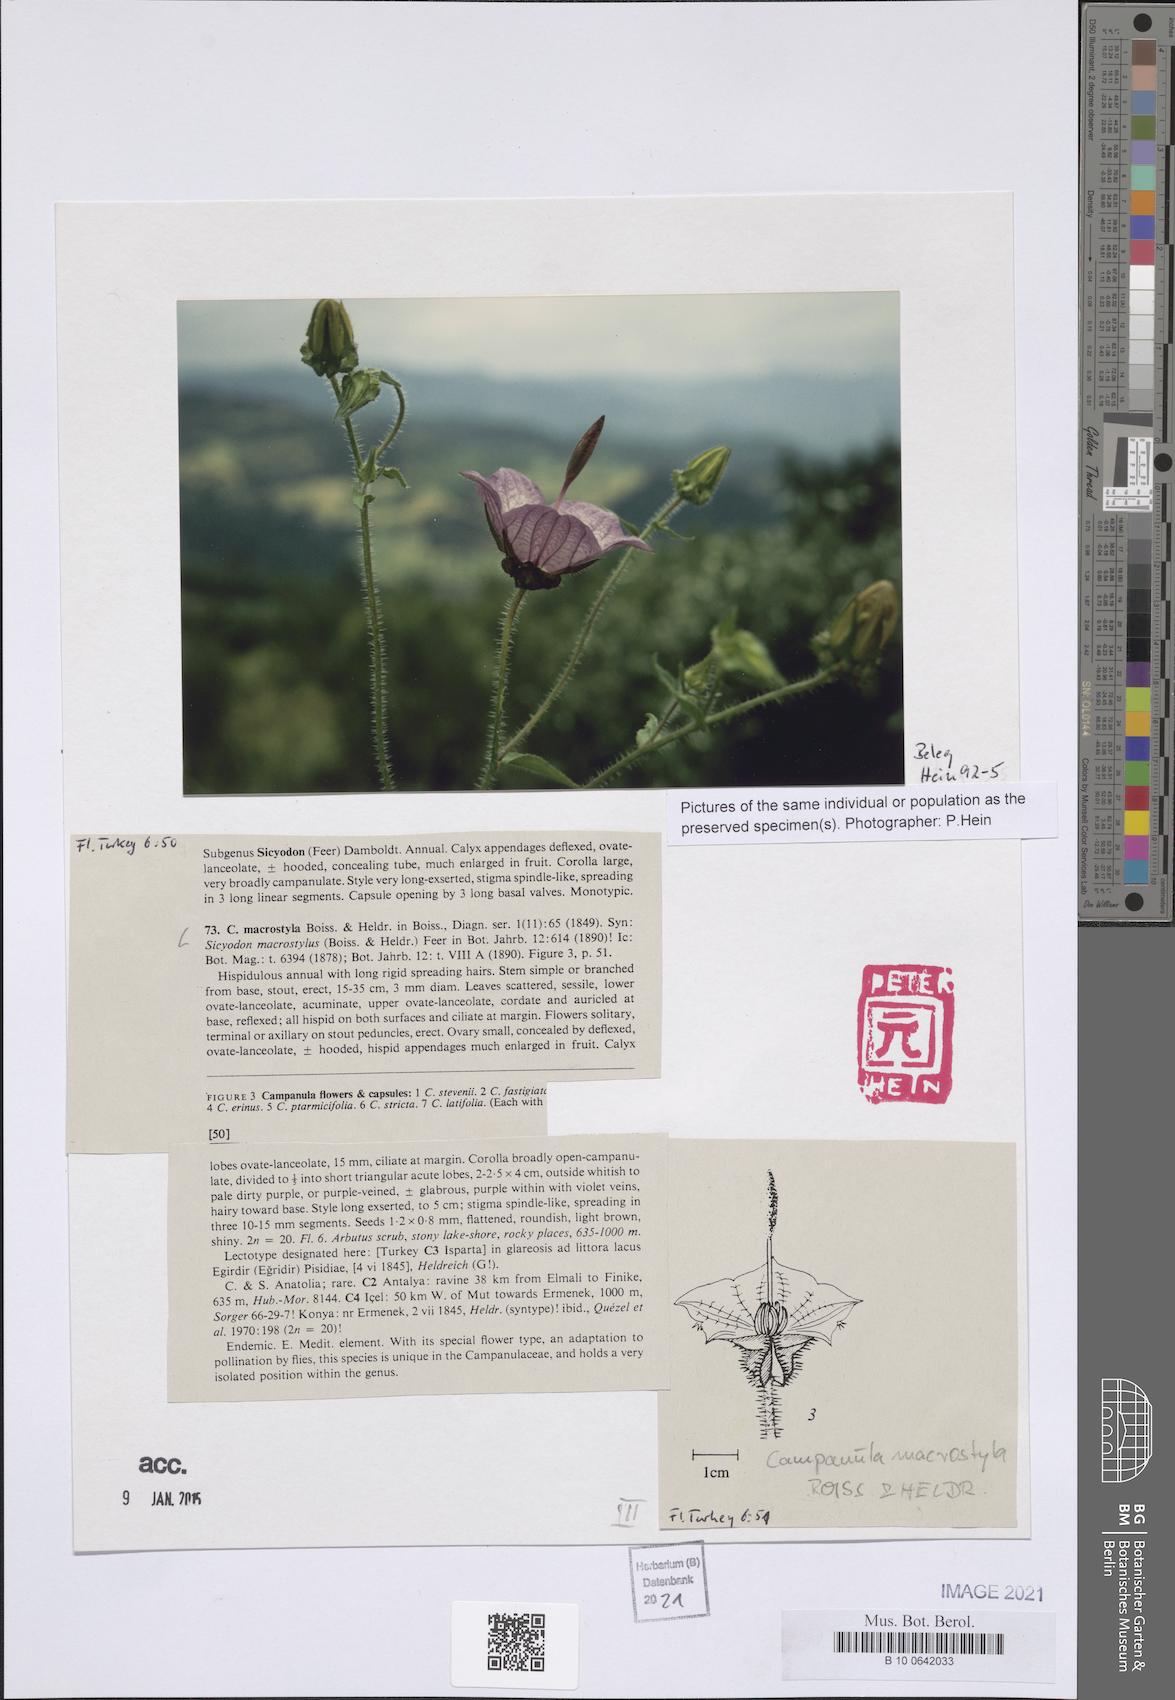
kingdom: Plantae
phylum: Tracheophyta
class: Magnoliopsida
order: Asterales
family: Campanulaceae
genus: Campanula
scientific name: Campanula macrostyla
